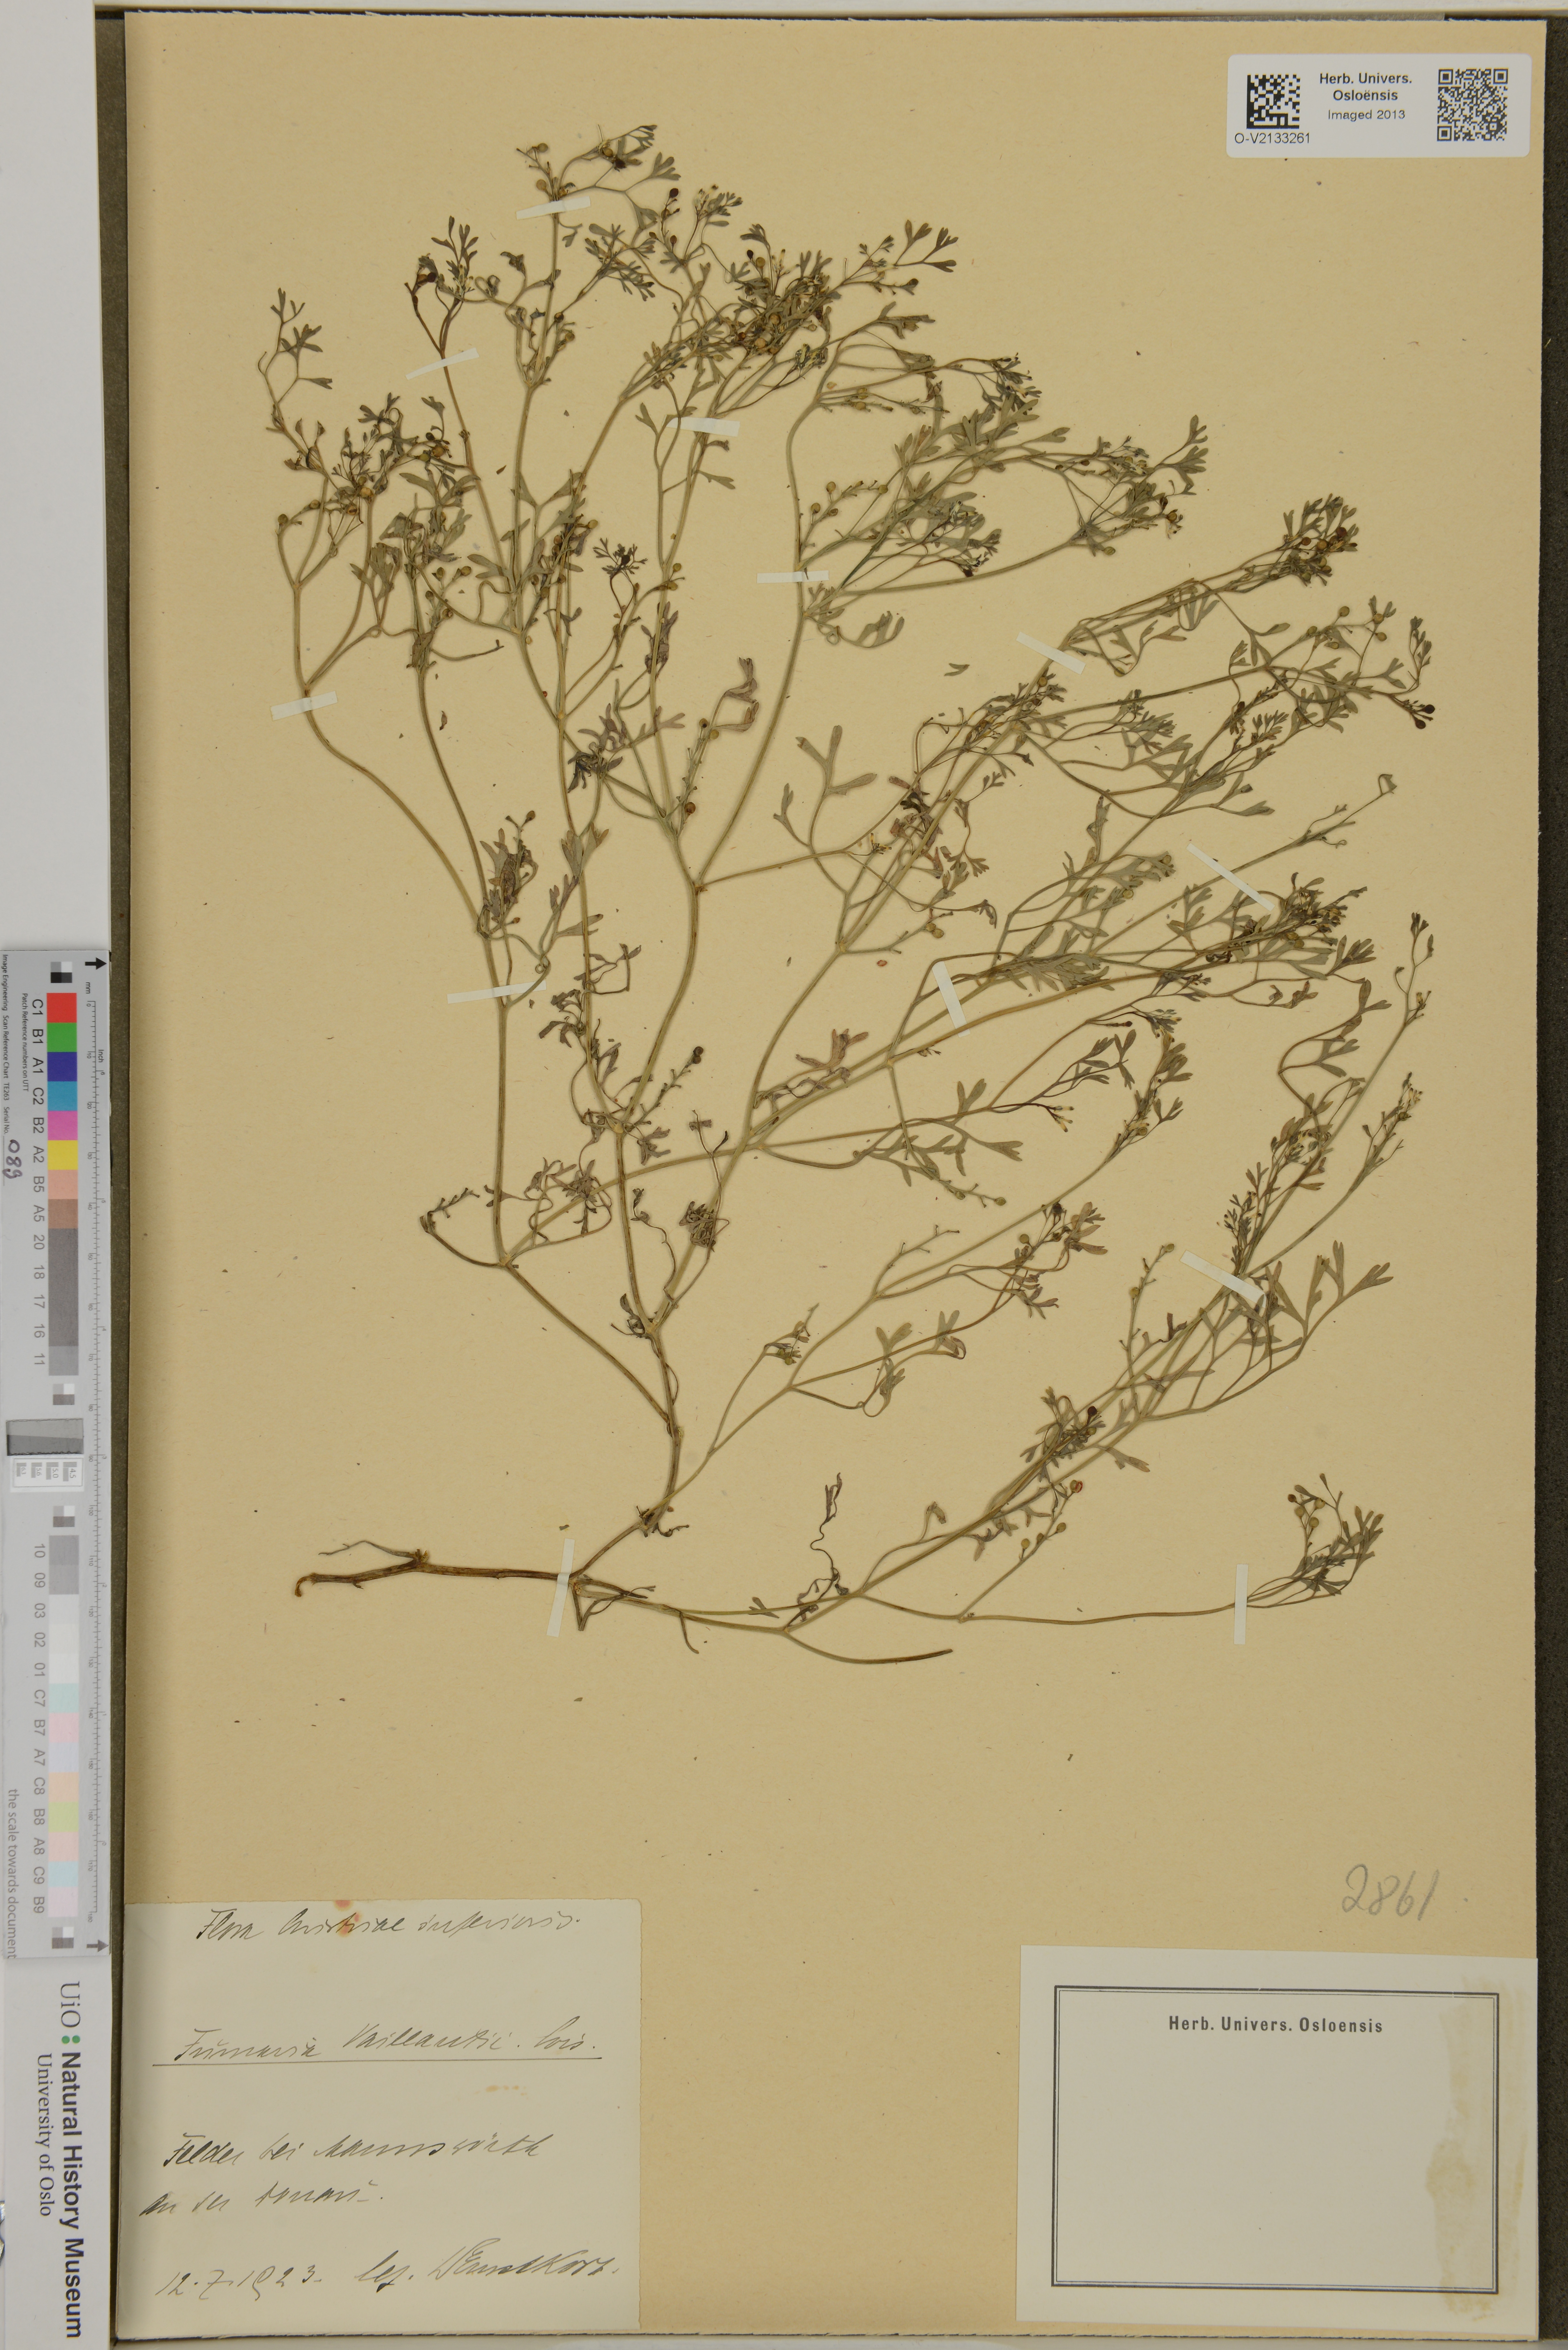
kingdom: Plantae
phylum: Tracheophyta
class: Magnoliopsida
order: Ranunculales
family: Papaveraceae
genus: Fumaria
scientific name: Fumaria vaillantii
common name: Few-flowered fumitory
